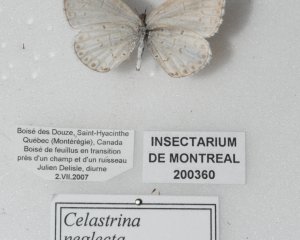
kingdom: Animalia
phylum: Arthropoda
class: Insecta
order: Lepidoptera
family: Lycaenidae
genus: Cyaniris
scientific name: Cyaniris neglecta
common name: Summer Azure
